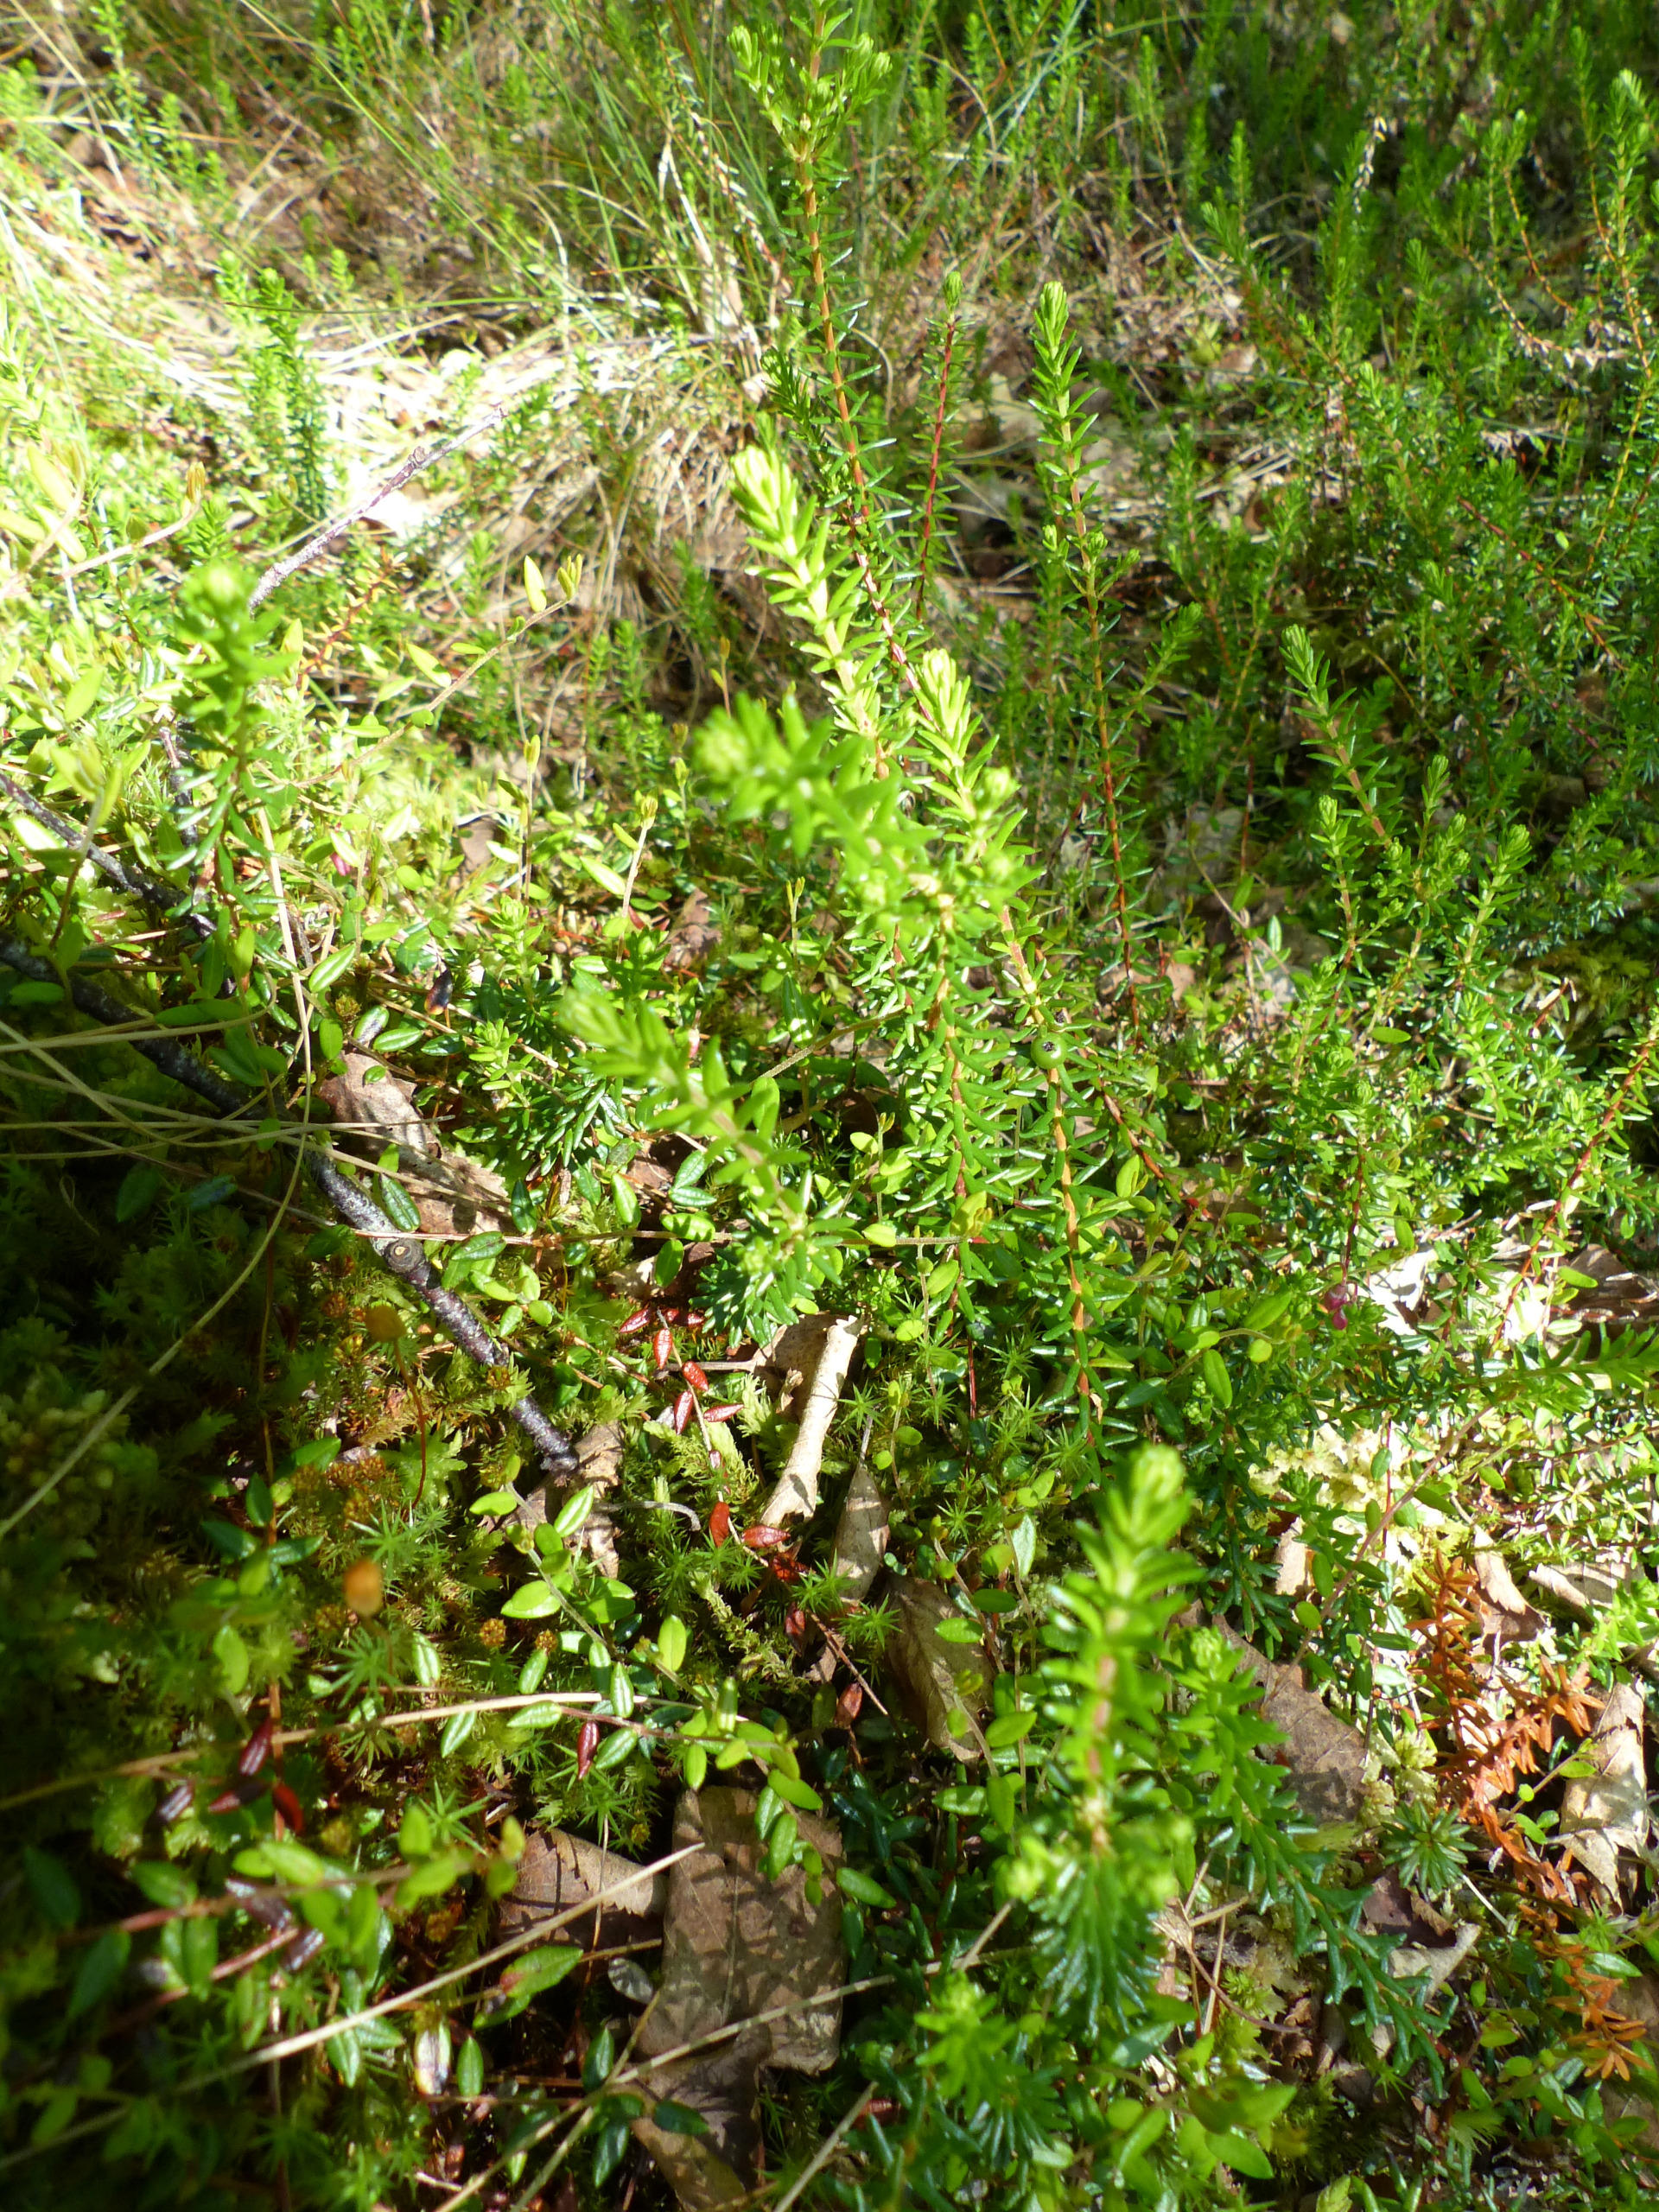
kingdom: Plantae
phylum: Tracheophyta
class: Magnoliopsida
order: Ericales
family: Ericaceae
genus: Empetrum
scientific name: Empetrum nigrum
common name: Revling
